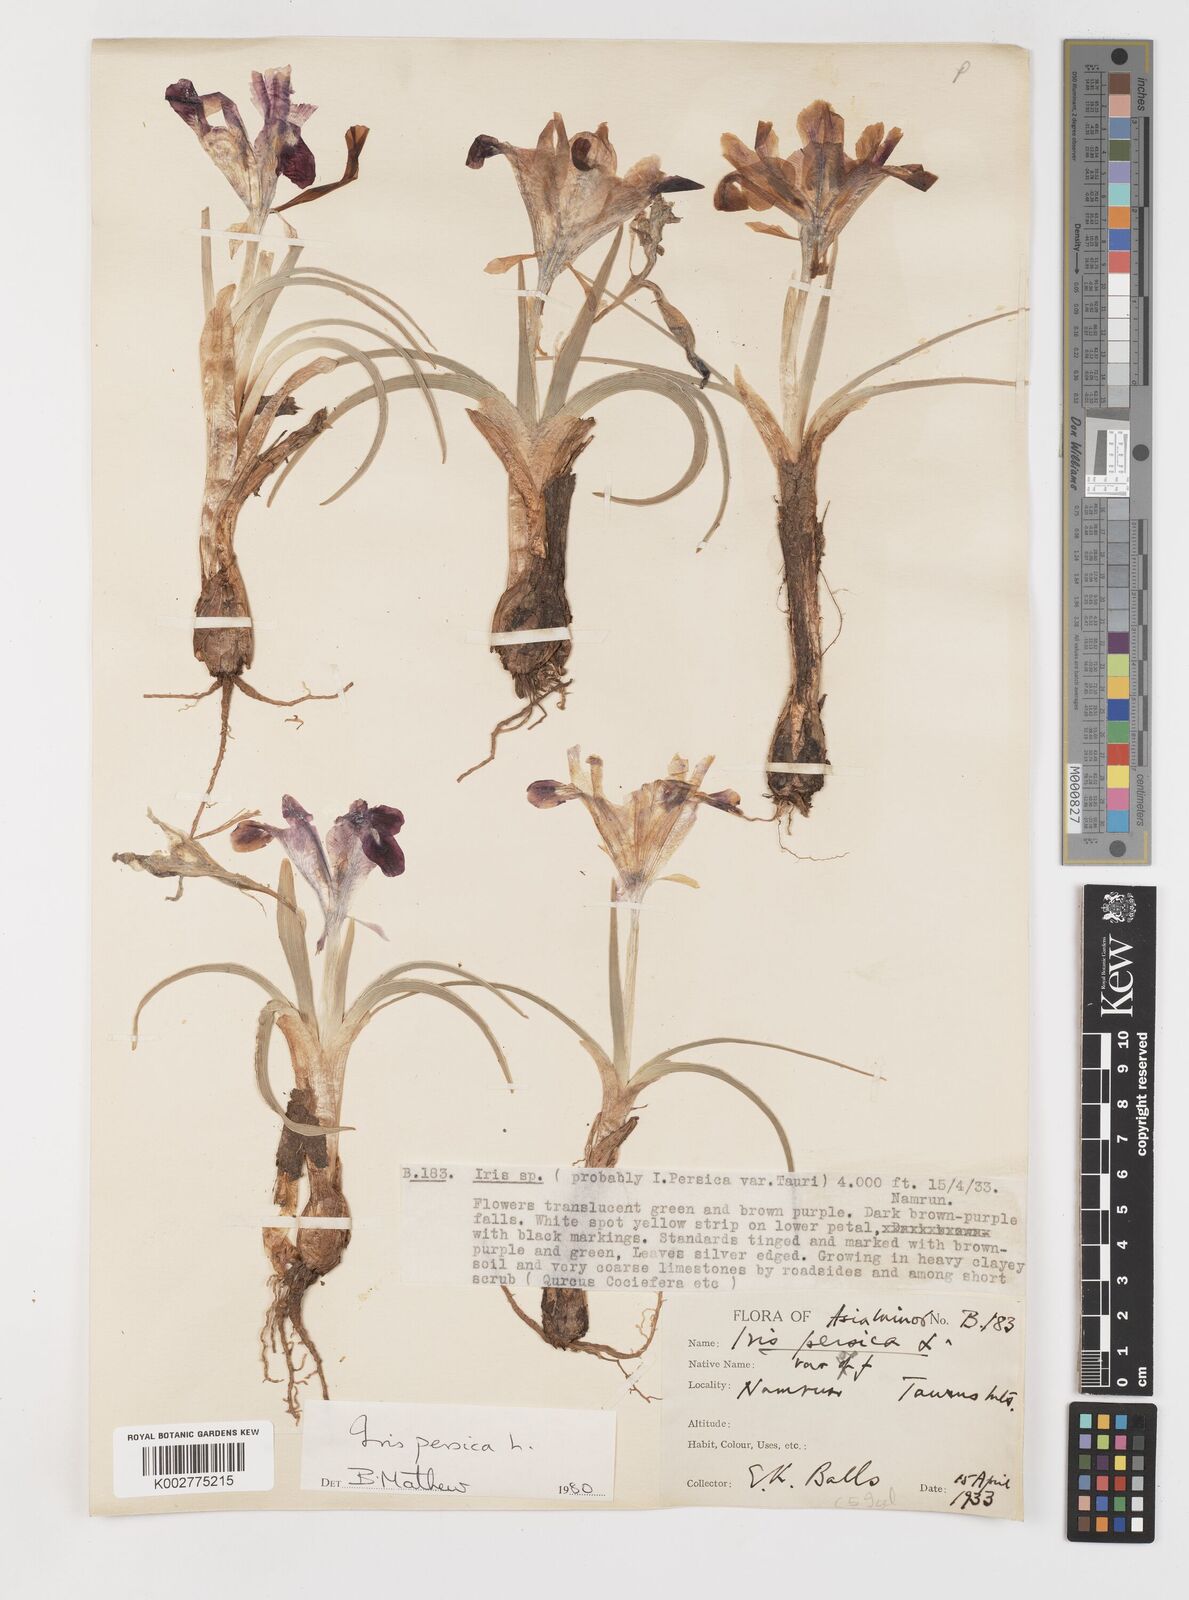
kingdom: Plantae
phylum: Tracheophyta
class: Liliopsida
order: Asparagales
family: Iridaceae
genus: Iris
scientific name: Iris persica
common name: Persian iris
